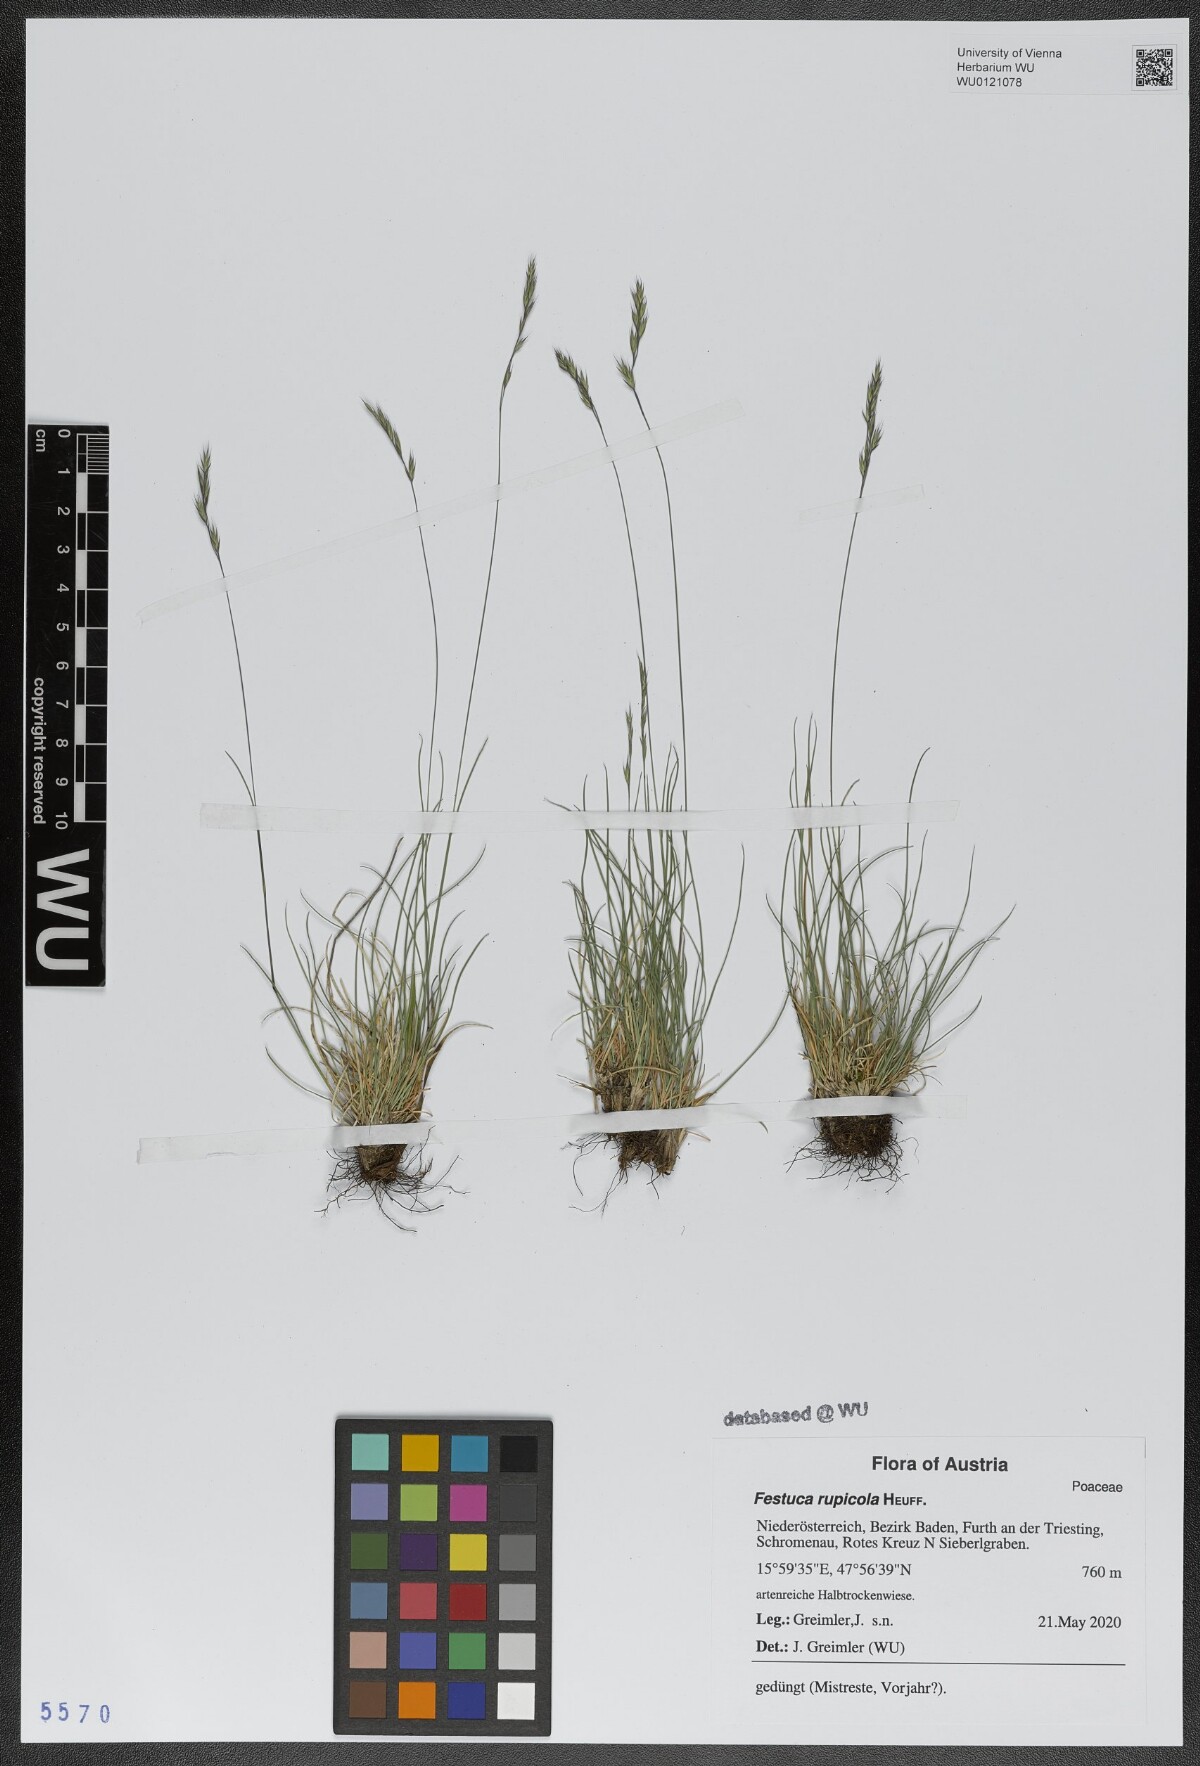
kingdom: Plantae
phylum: Tracheophyta
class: Liliopsida
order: Poales
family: Poaceae
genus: Festuca
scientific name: Festuca rupicola
